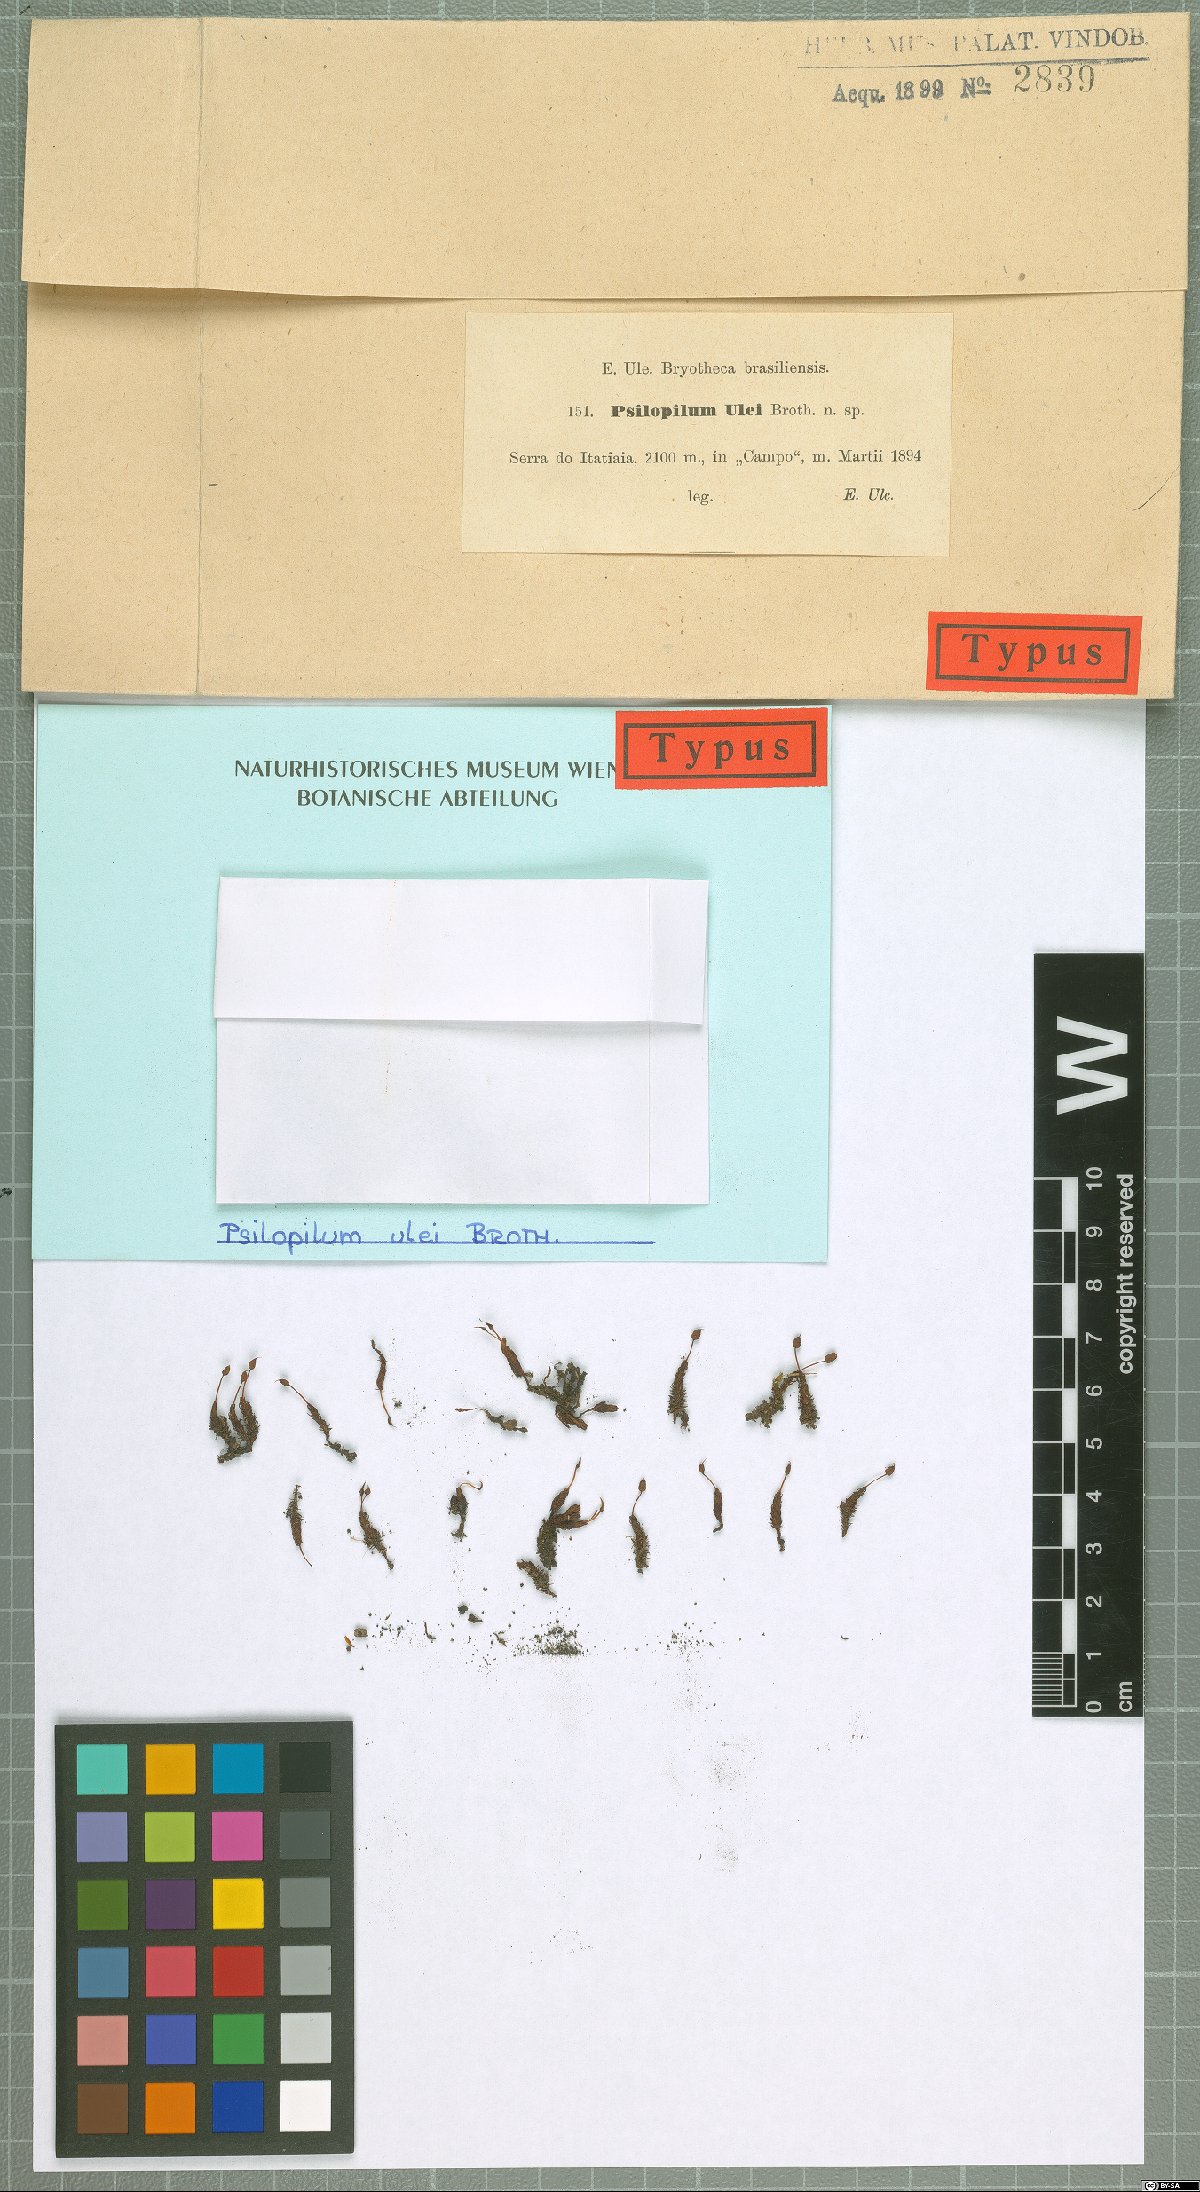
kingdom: Plantae
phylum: Bryophyta
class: Polytrichopsida
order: Polytrichales
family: Polytrichaceae
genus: Itatiella
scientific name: Itatiella ulei
